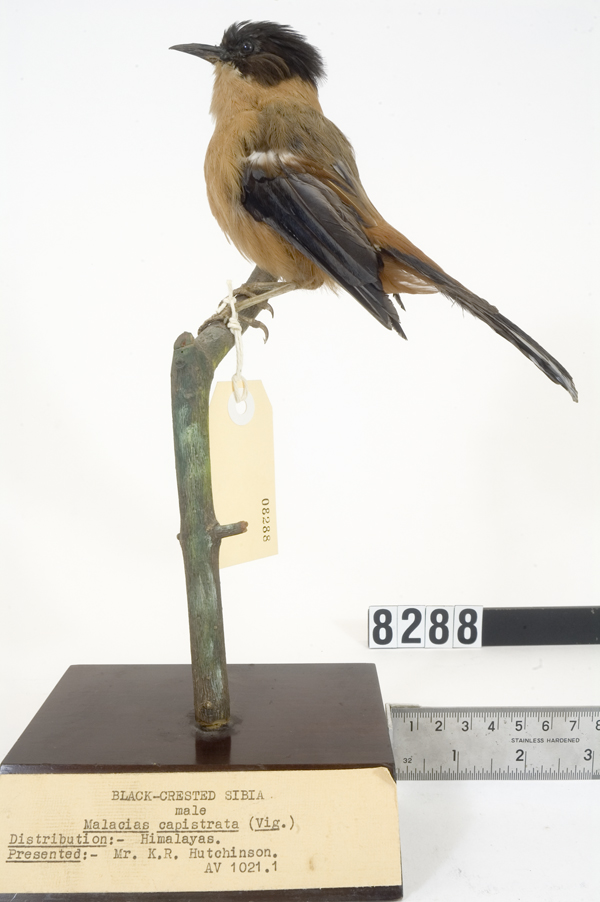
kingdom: Animalia
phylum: Chordata
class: Aves
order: Passeriformes
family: Leiothrichidae
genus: Heterophasia
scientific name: Heterophasia capistrata
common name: Rufous sibia
